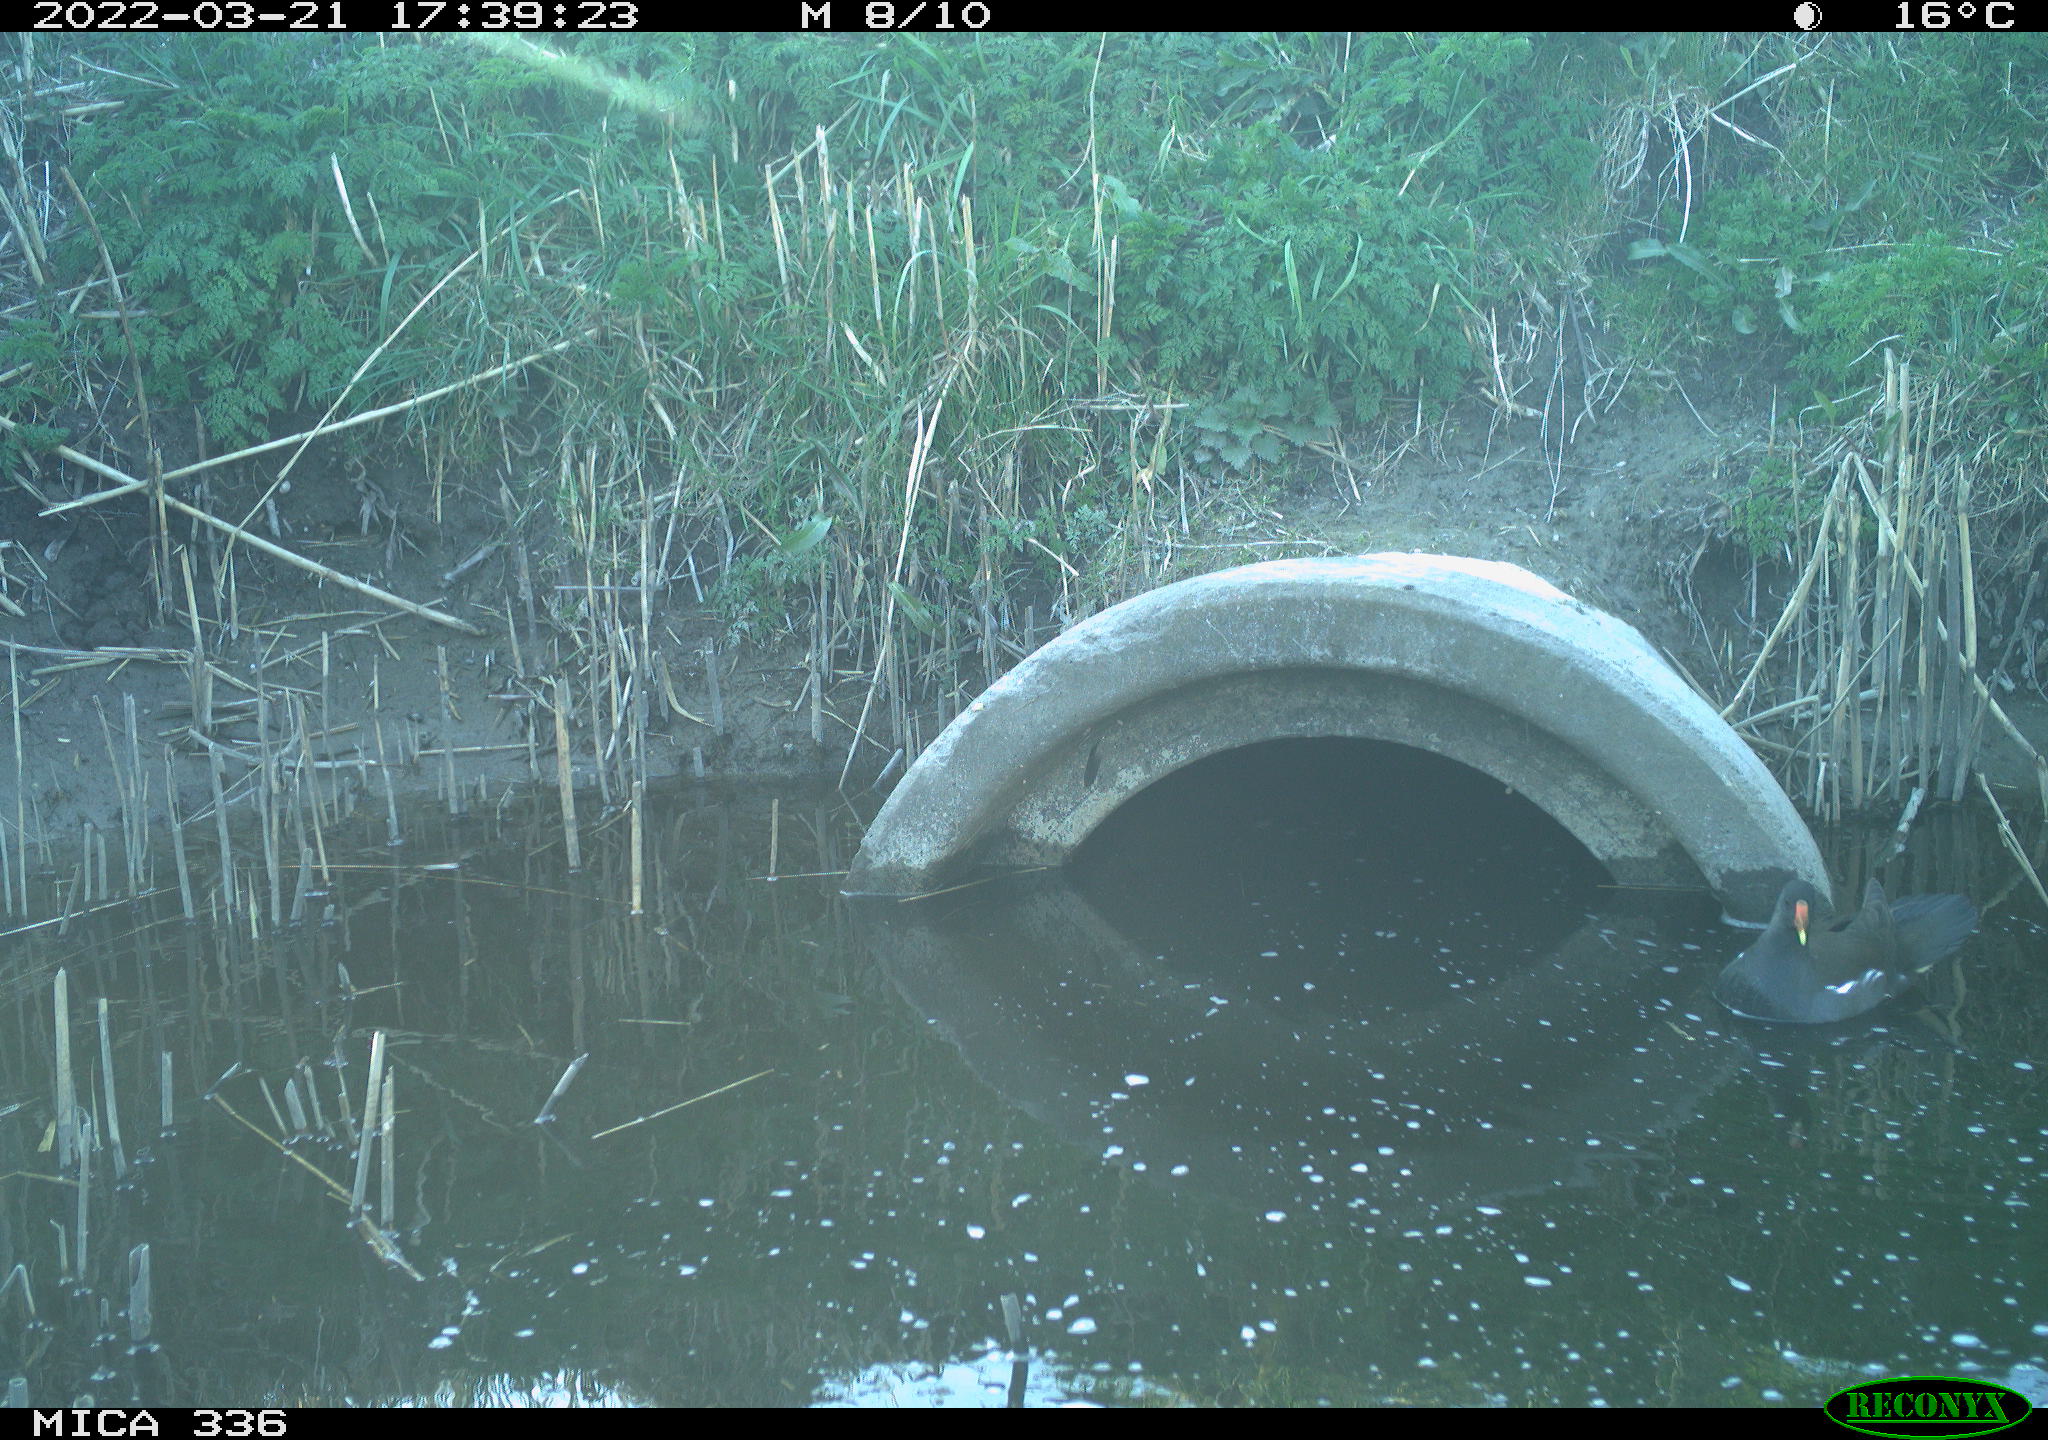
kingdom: Animalia
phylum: Chordata
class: Aves
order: Gruiformes
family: Rallidae
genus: Gallinula
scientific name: Gallinula chloropus
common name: Common moorhen
